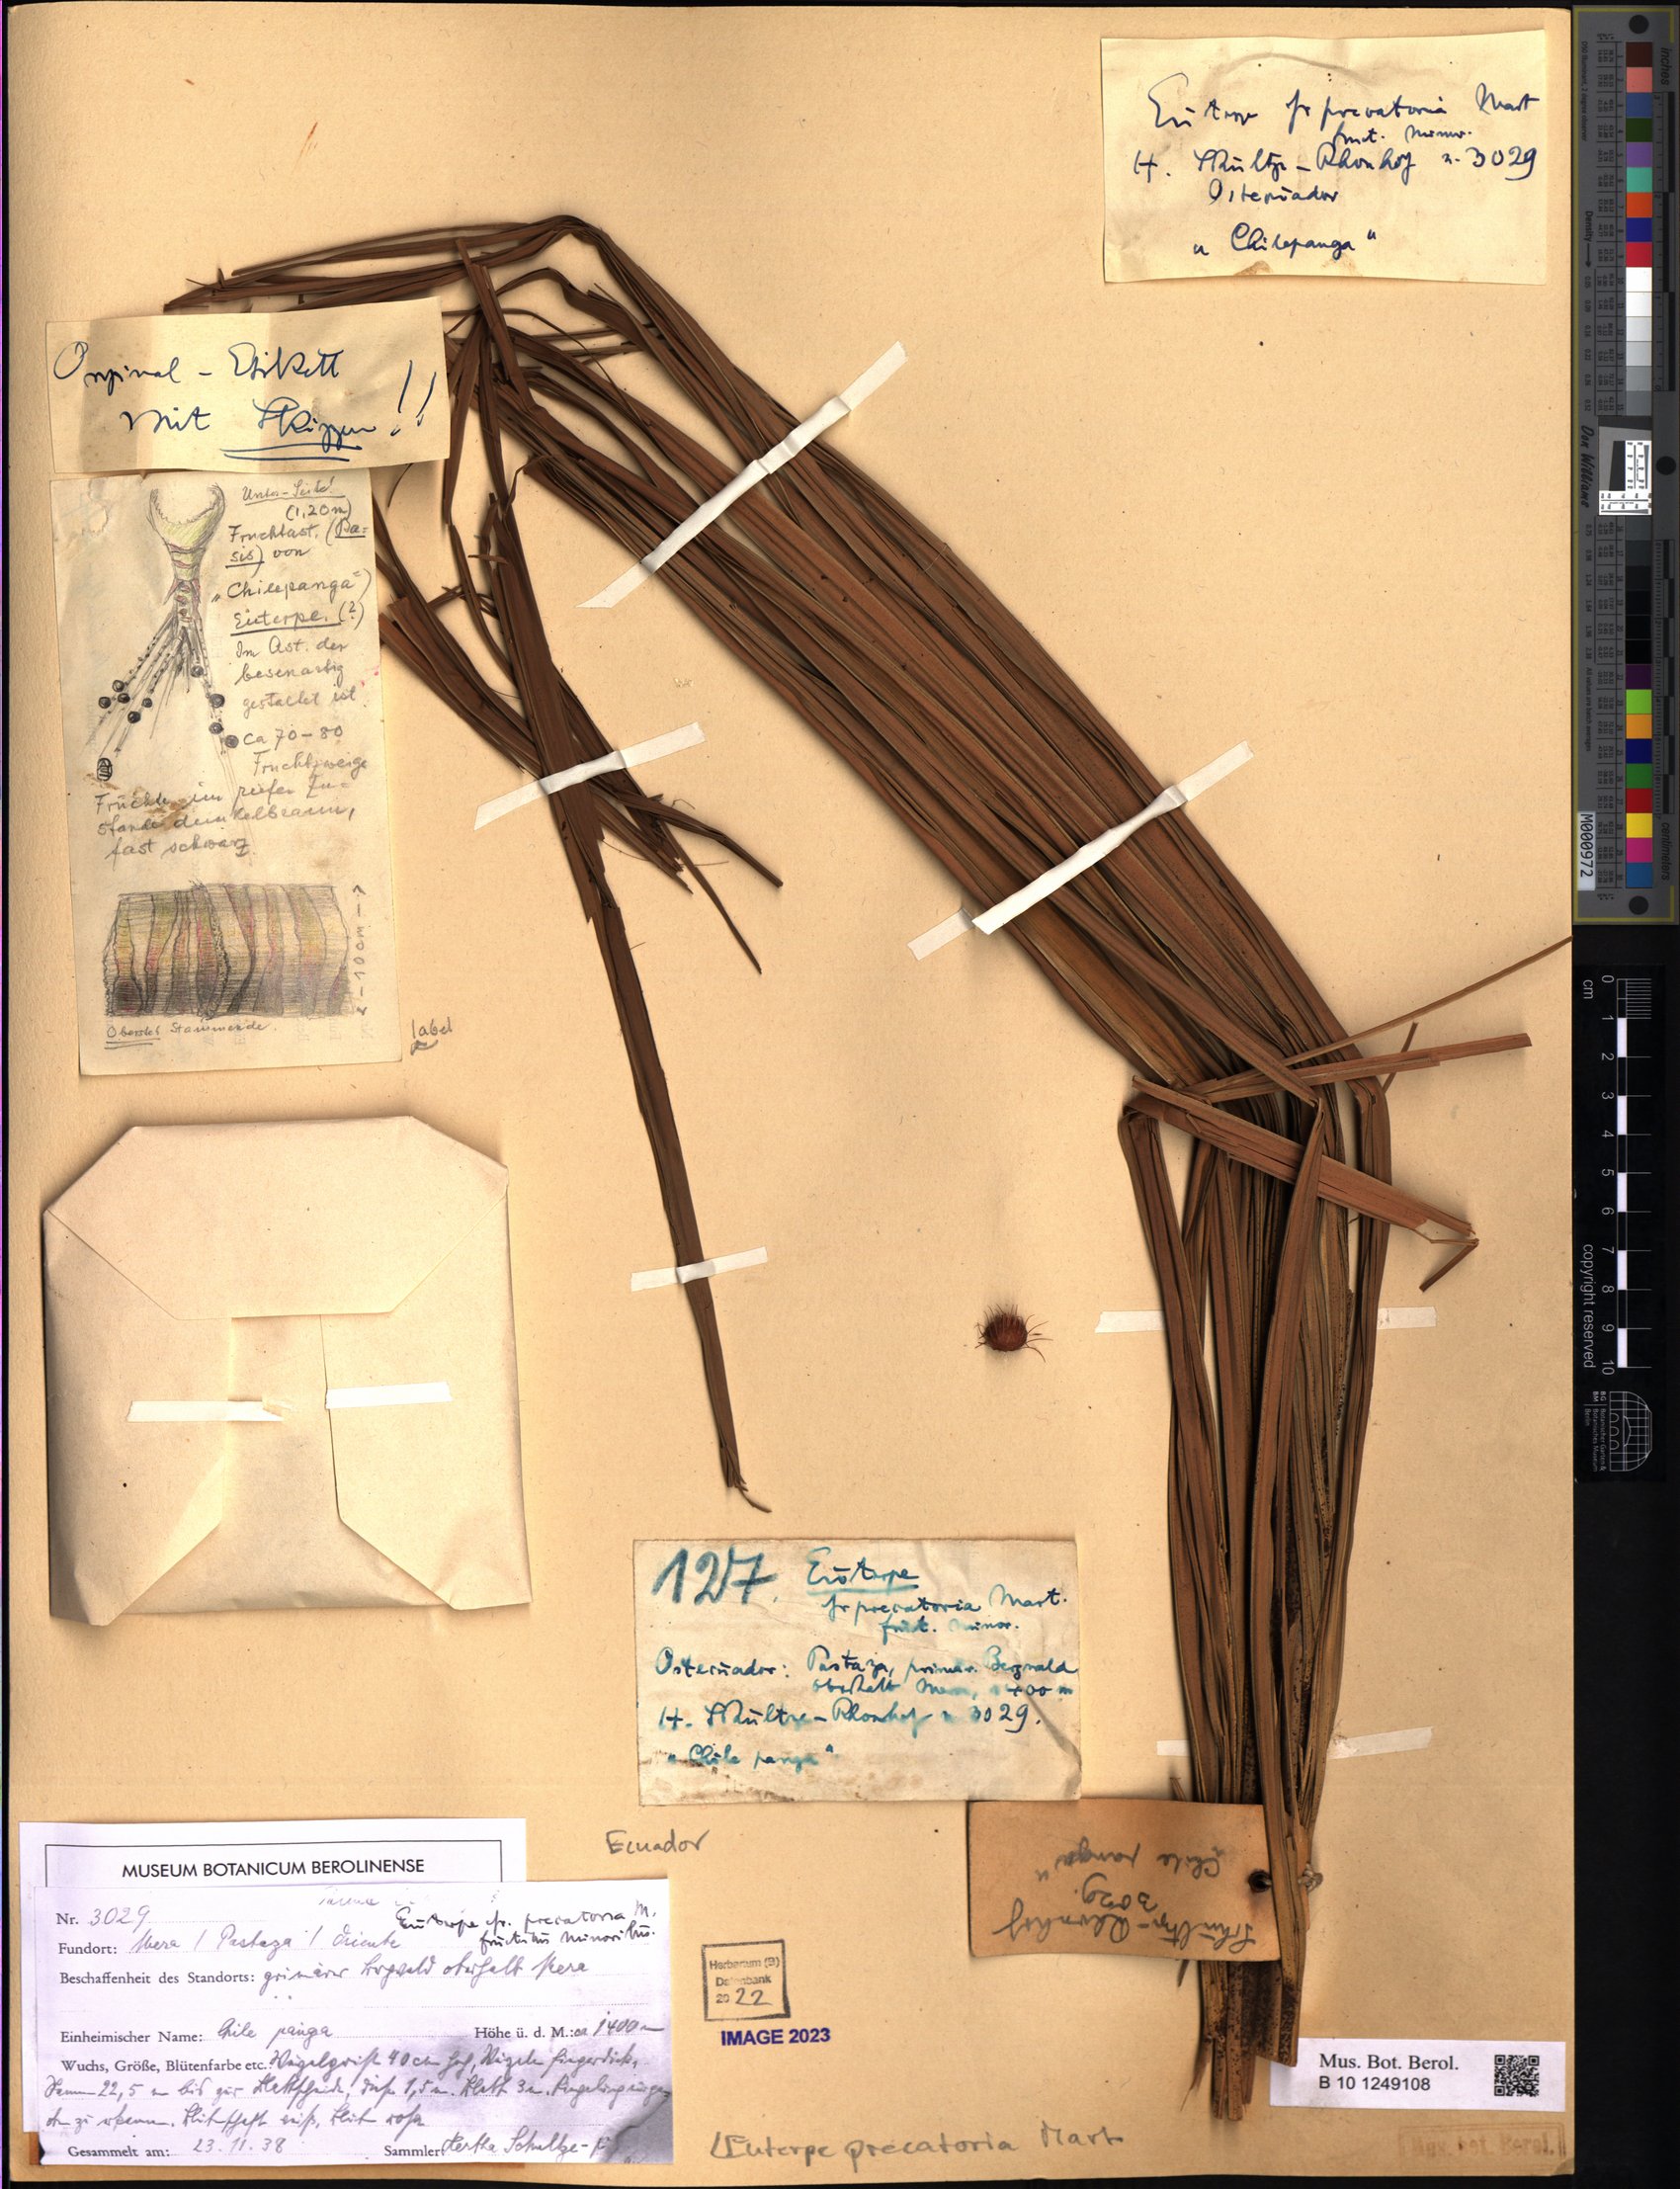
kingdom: Plantae
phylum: Tracheophyta
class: Liliopsida
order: Arecales
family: Arecaceae
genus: Euterpe
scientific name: Euterpe precatoria
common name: Mountain-cabbage
